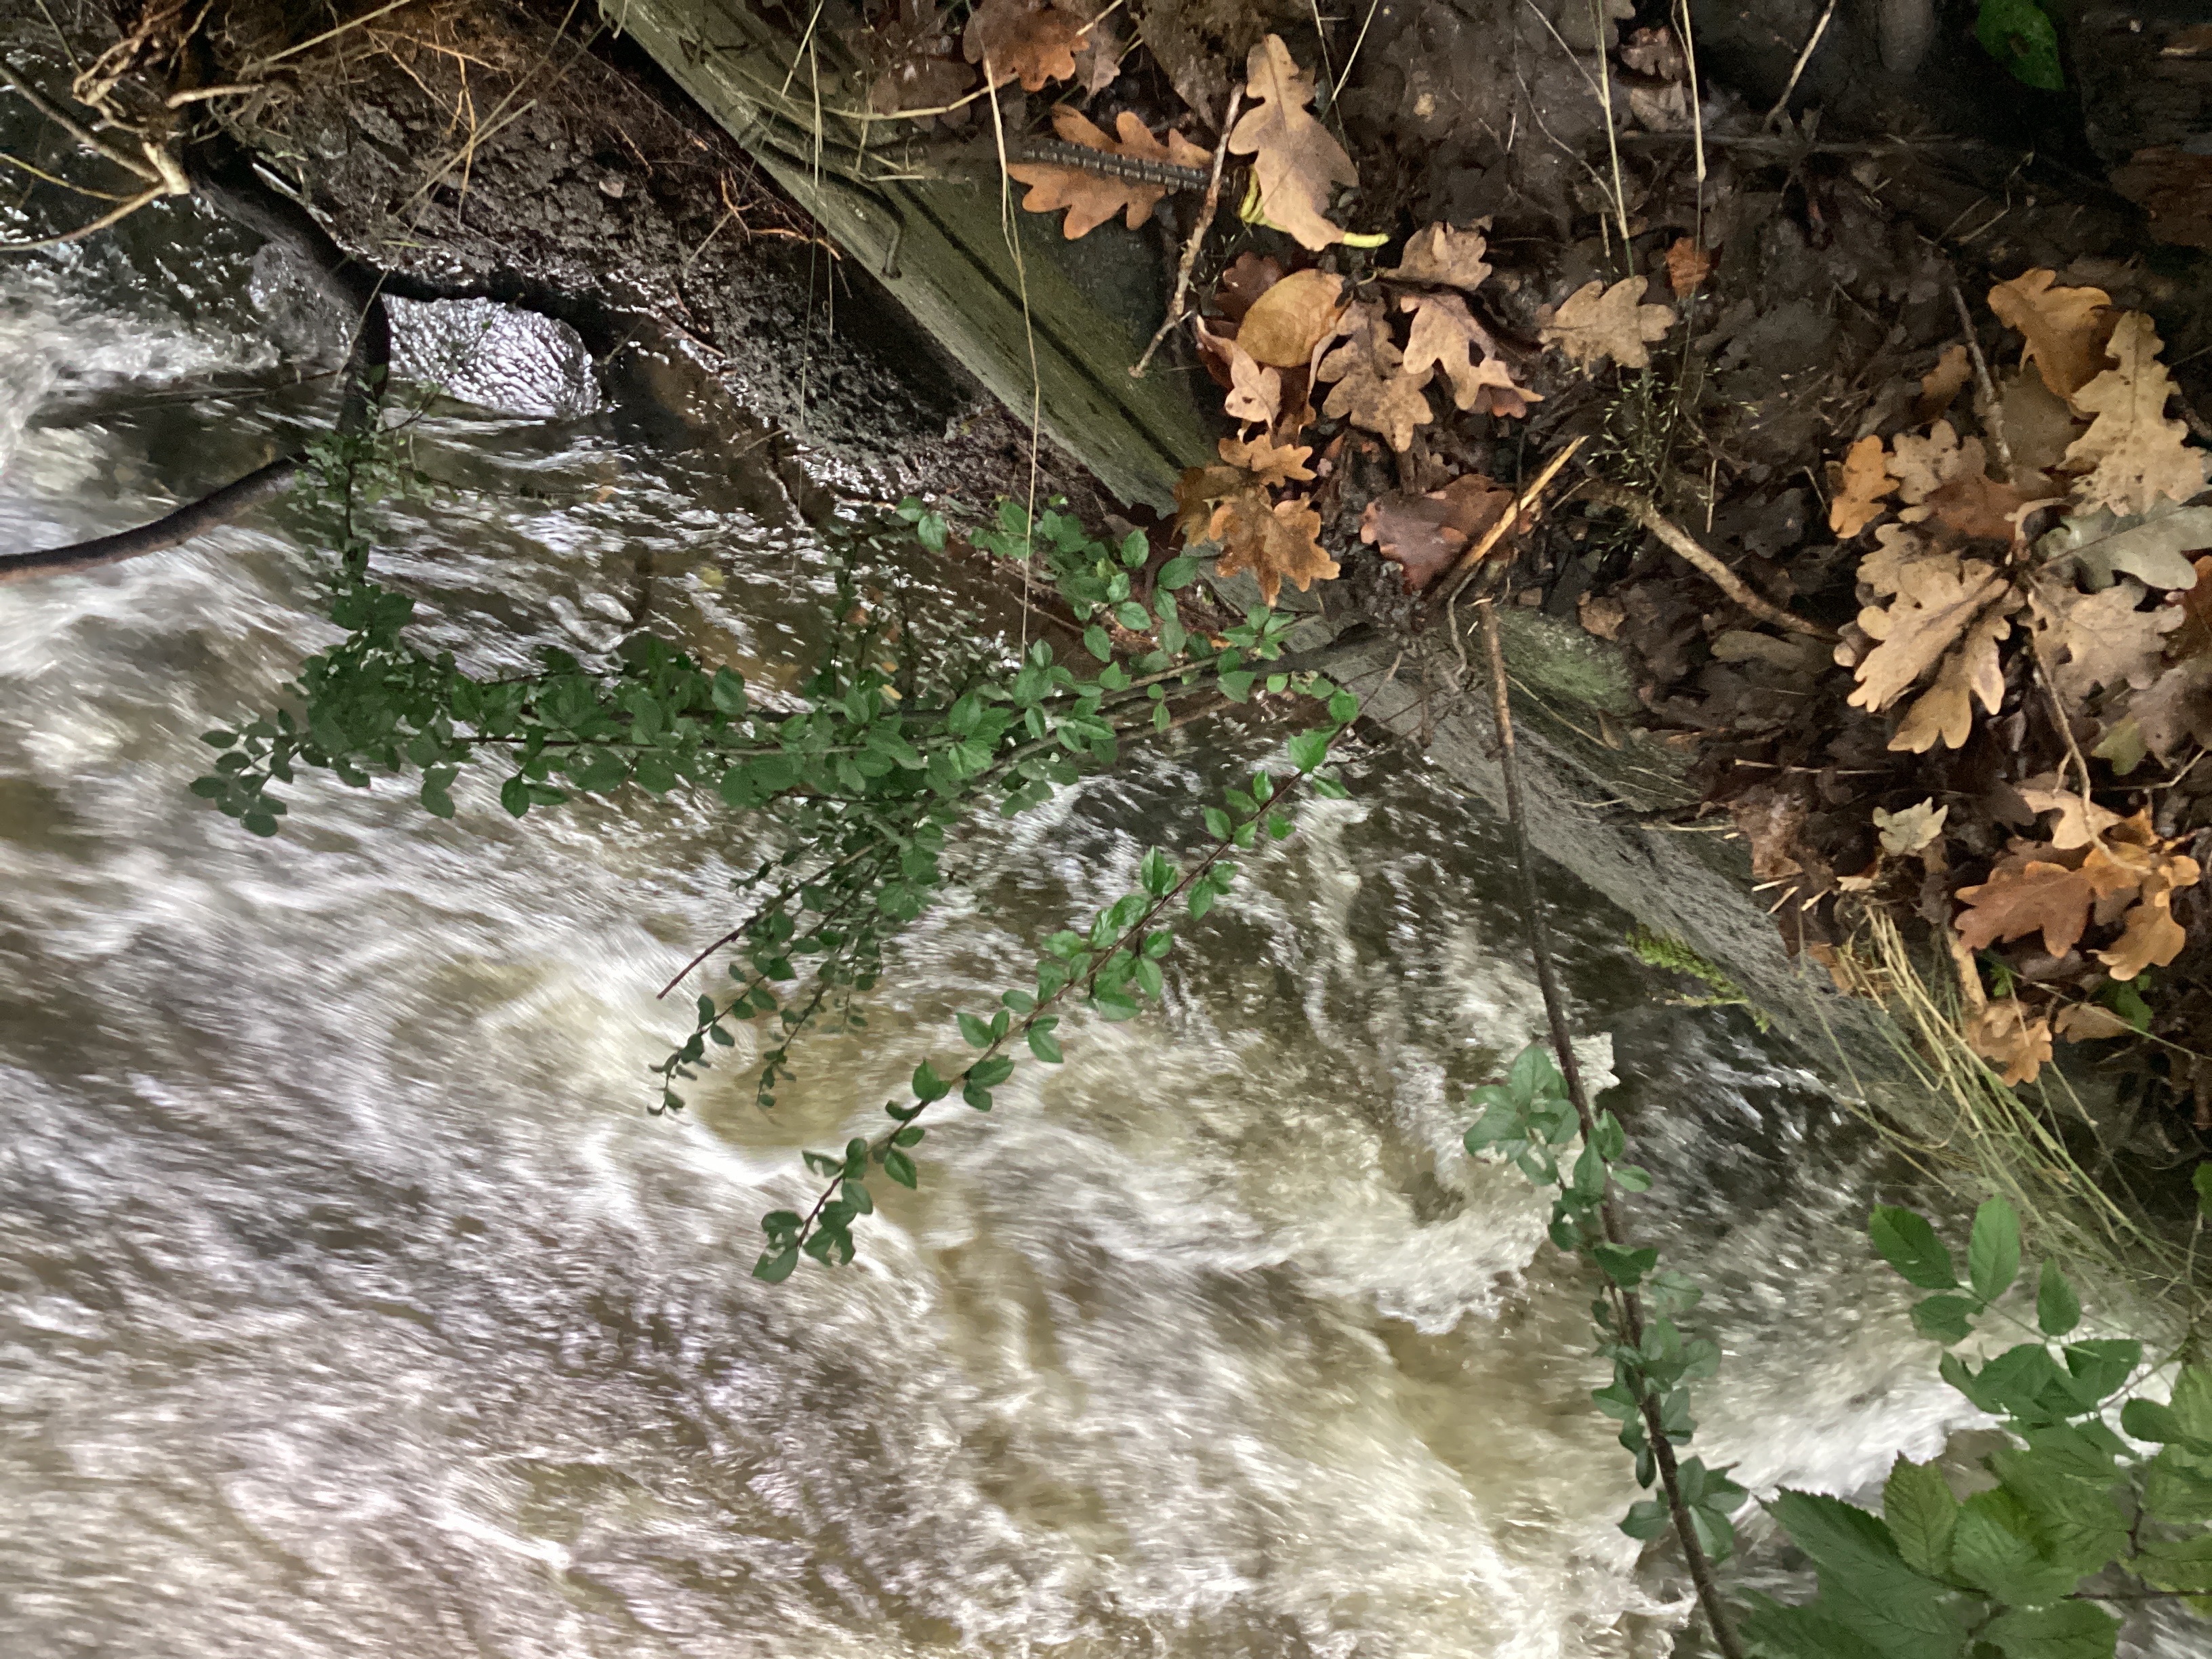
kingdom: Plantae
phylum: Tracheophyta
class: Magnoliopsida
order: Rosales
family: Rosaceae
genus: Cotoneaster
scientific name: Cotoneaster divaricatus
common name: sprikemispel
